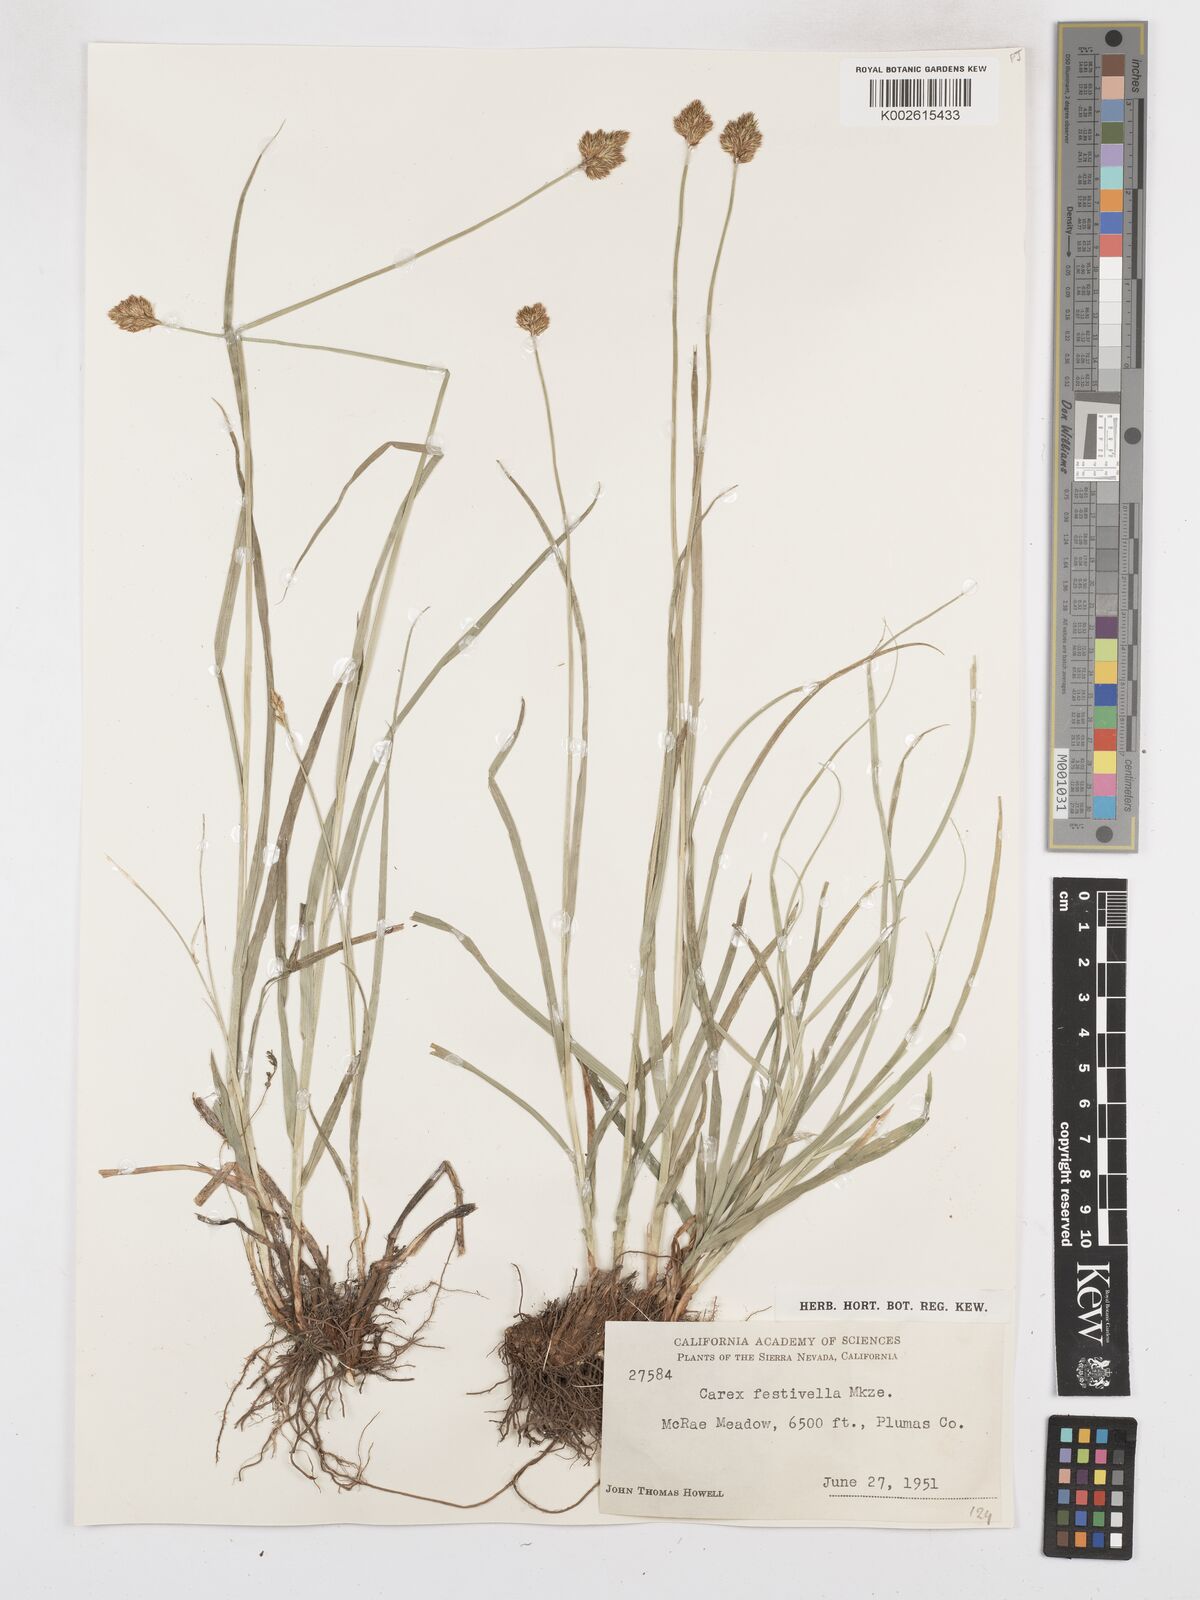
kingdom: Plantae
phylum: Tracheophyta
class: Liliopsida
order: Poales
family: Cyperaceae
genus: Carex
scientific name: Carex microptera
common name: Oval-headed sedge
